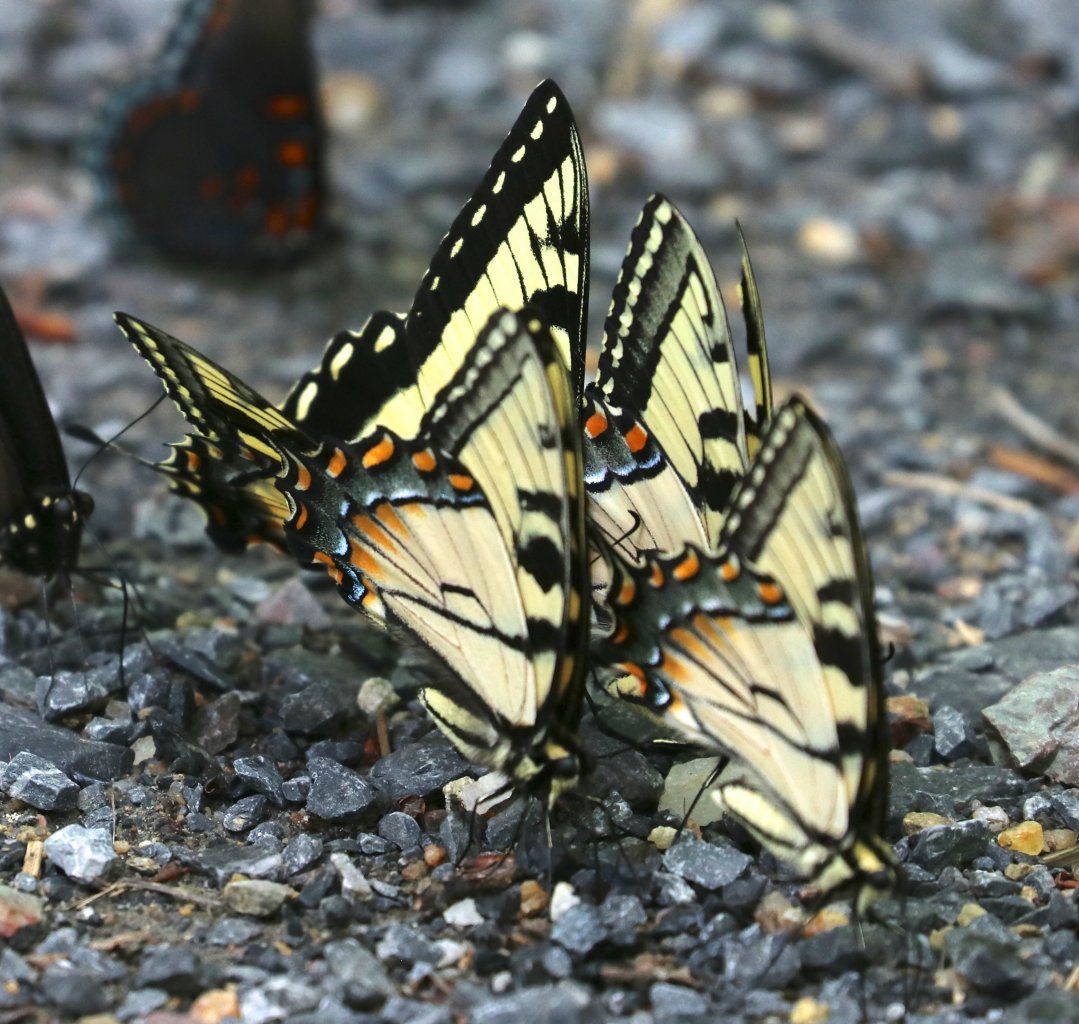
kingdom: Animalia
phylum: Arthropoda
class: Insecta
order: Lepidoptera
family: Papilionidae
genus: Pterourus
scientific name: Pterourus glaucus
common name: Eastern Tiger Swallowtail
